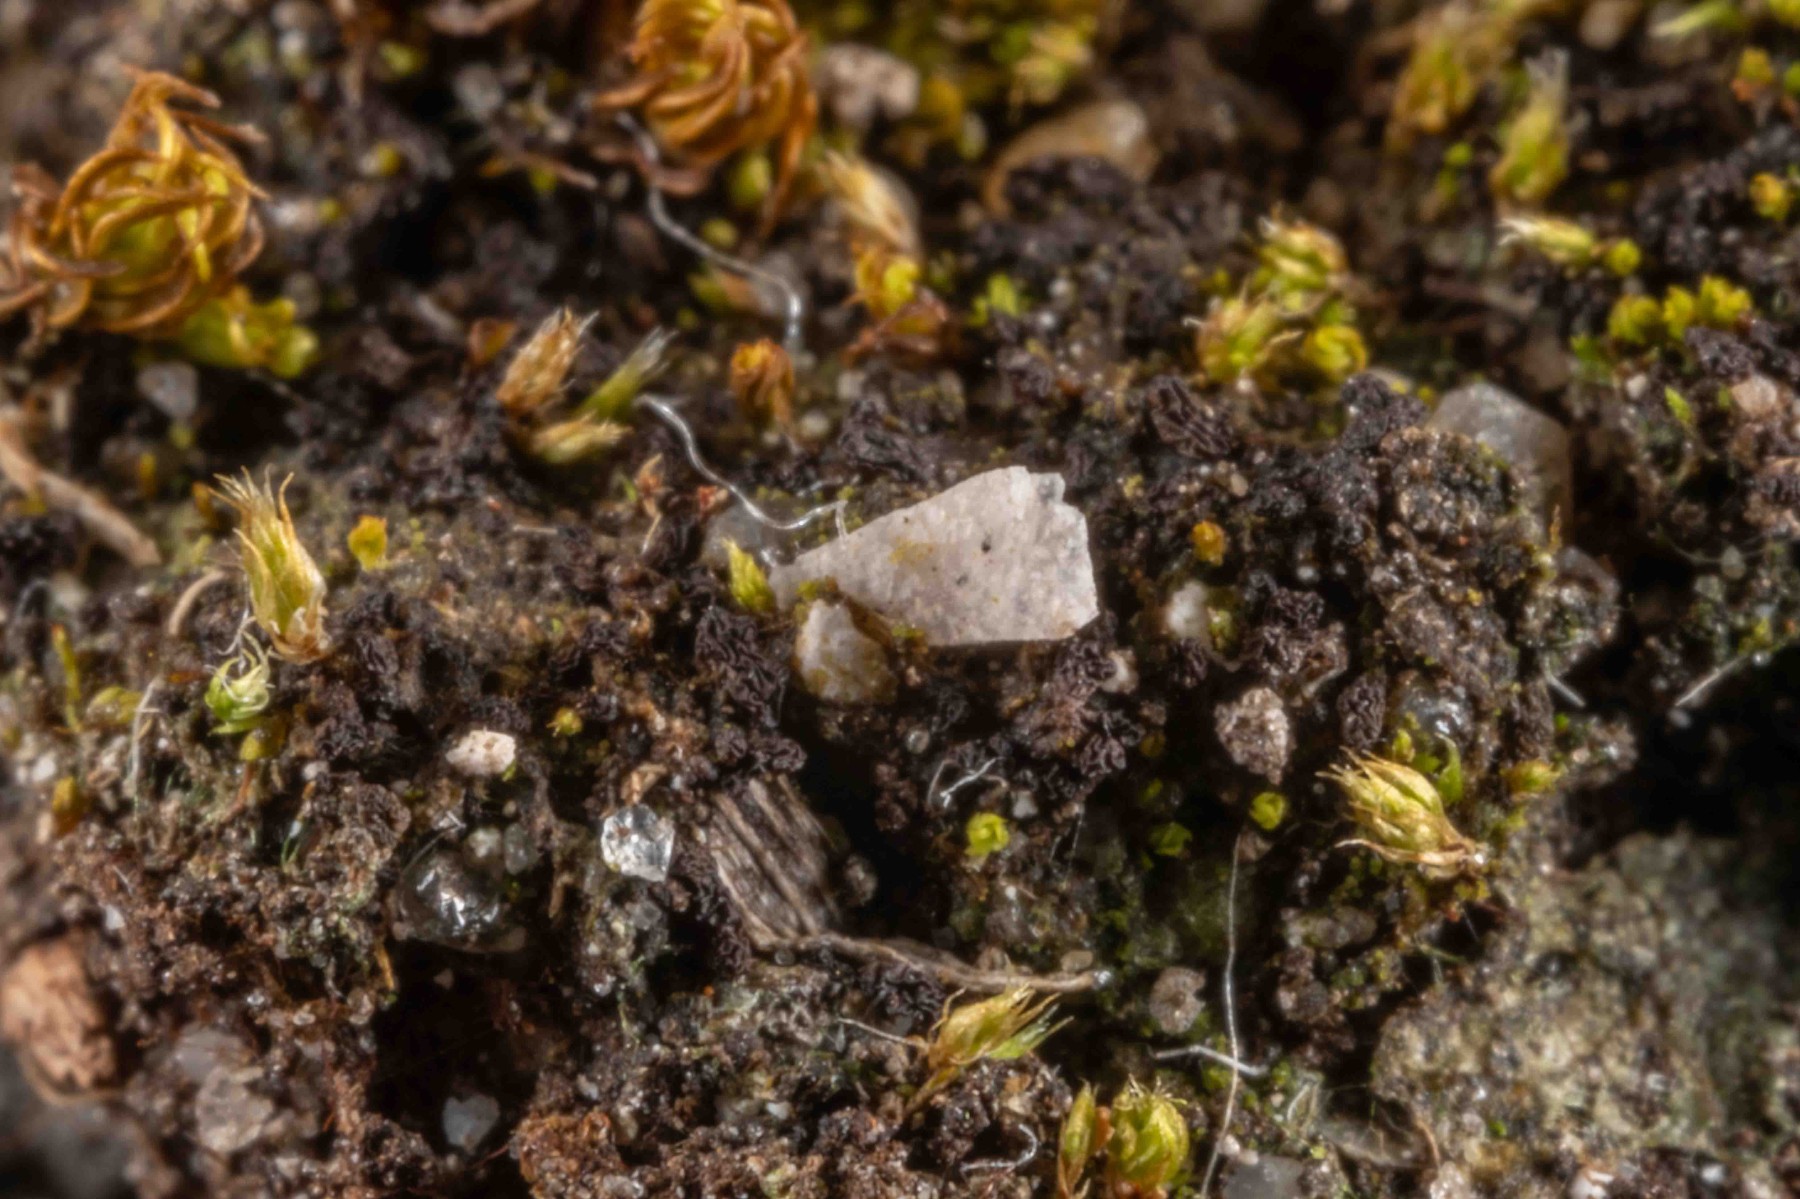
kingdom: Fungi
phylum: Ascomycota
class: Lecanoromycetes
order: Peltigerales
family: Collemataceae
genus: Scytinium
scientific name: Scytinium schraderi
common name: grubet hindelav
